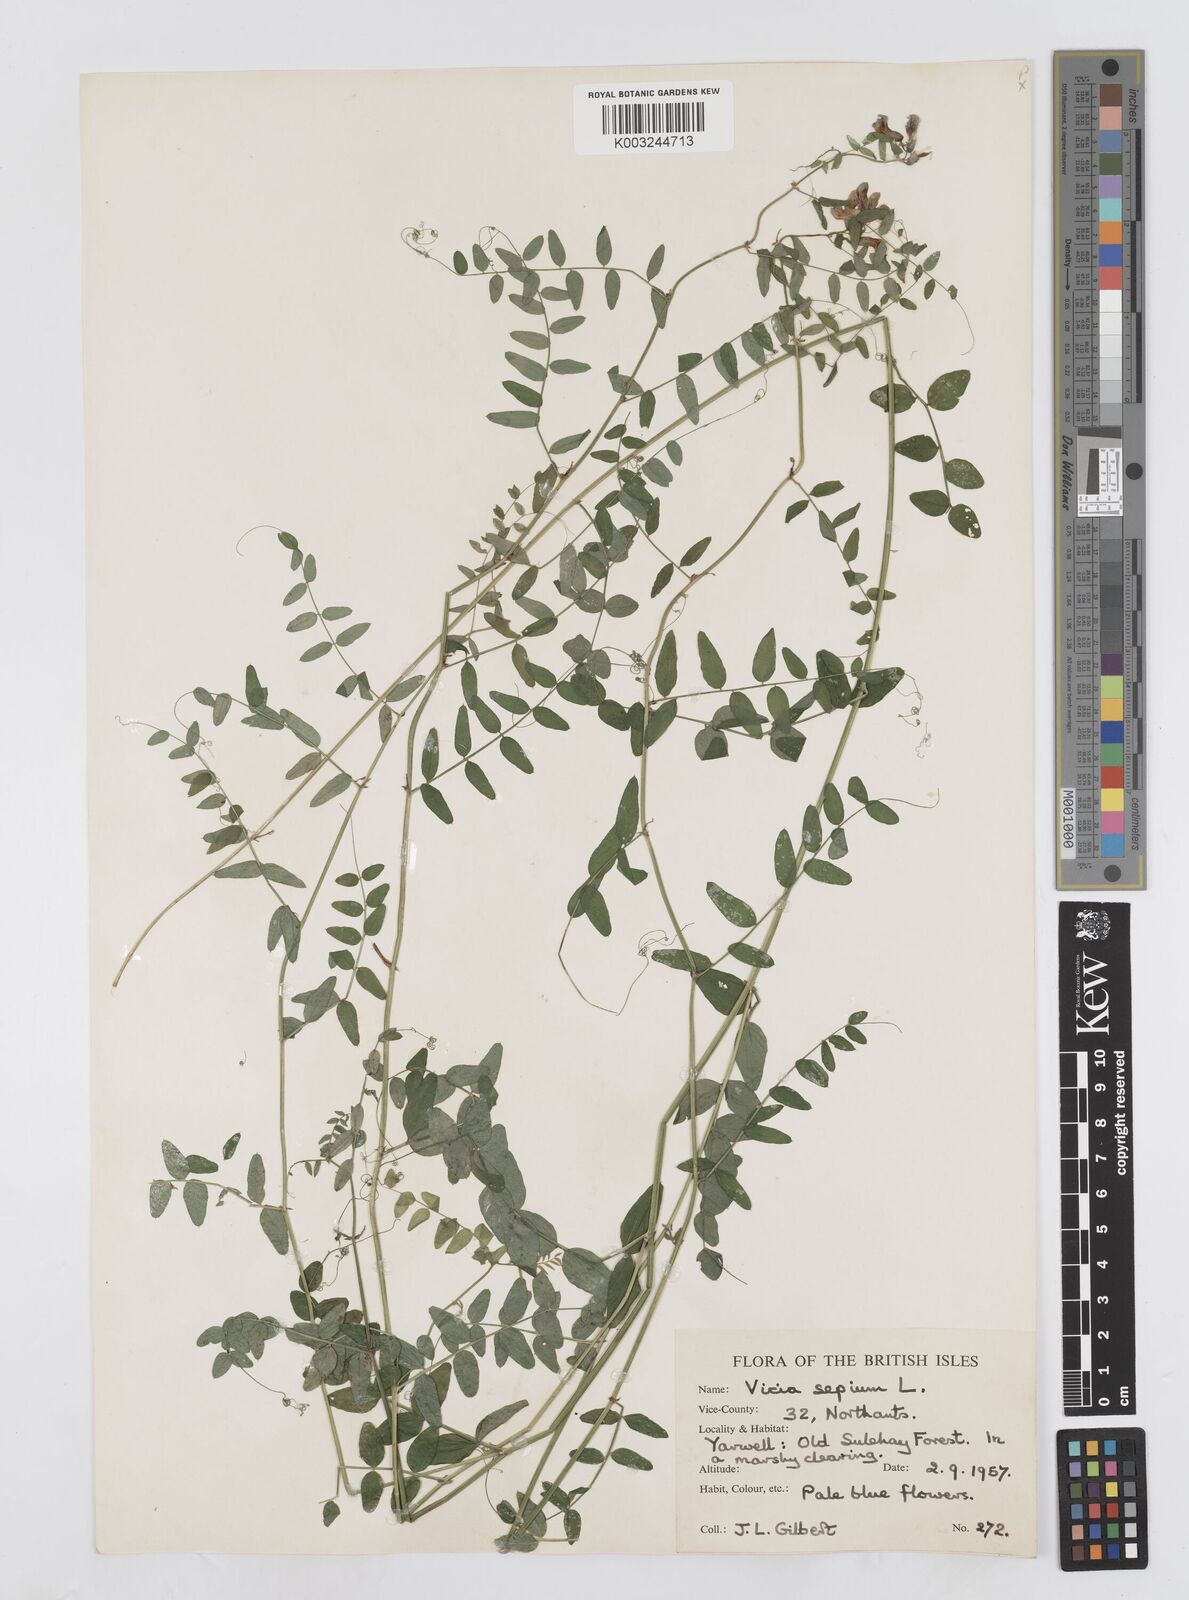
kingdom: Plantae
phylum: Tracheophyta
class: Magnoliopsida
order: Fabales
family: Fabaceae
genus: Vicia
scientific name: Vicia sepium
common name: Bush vetch
